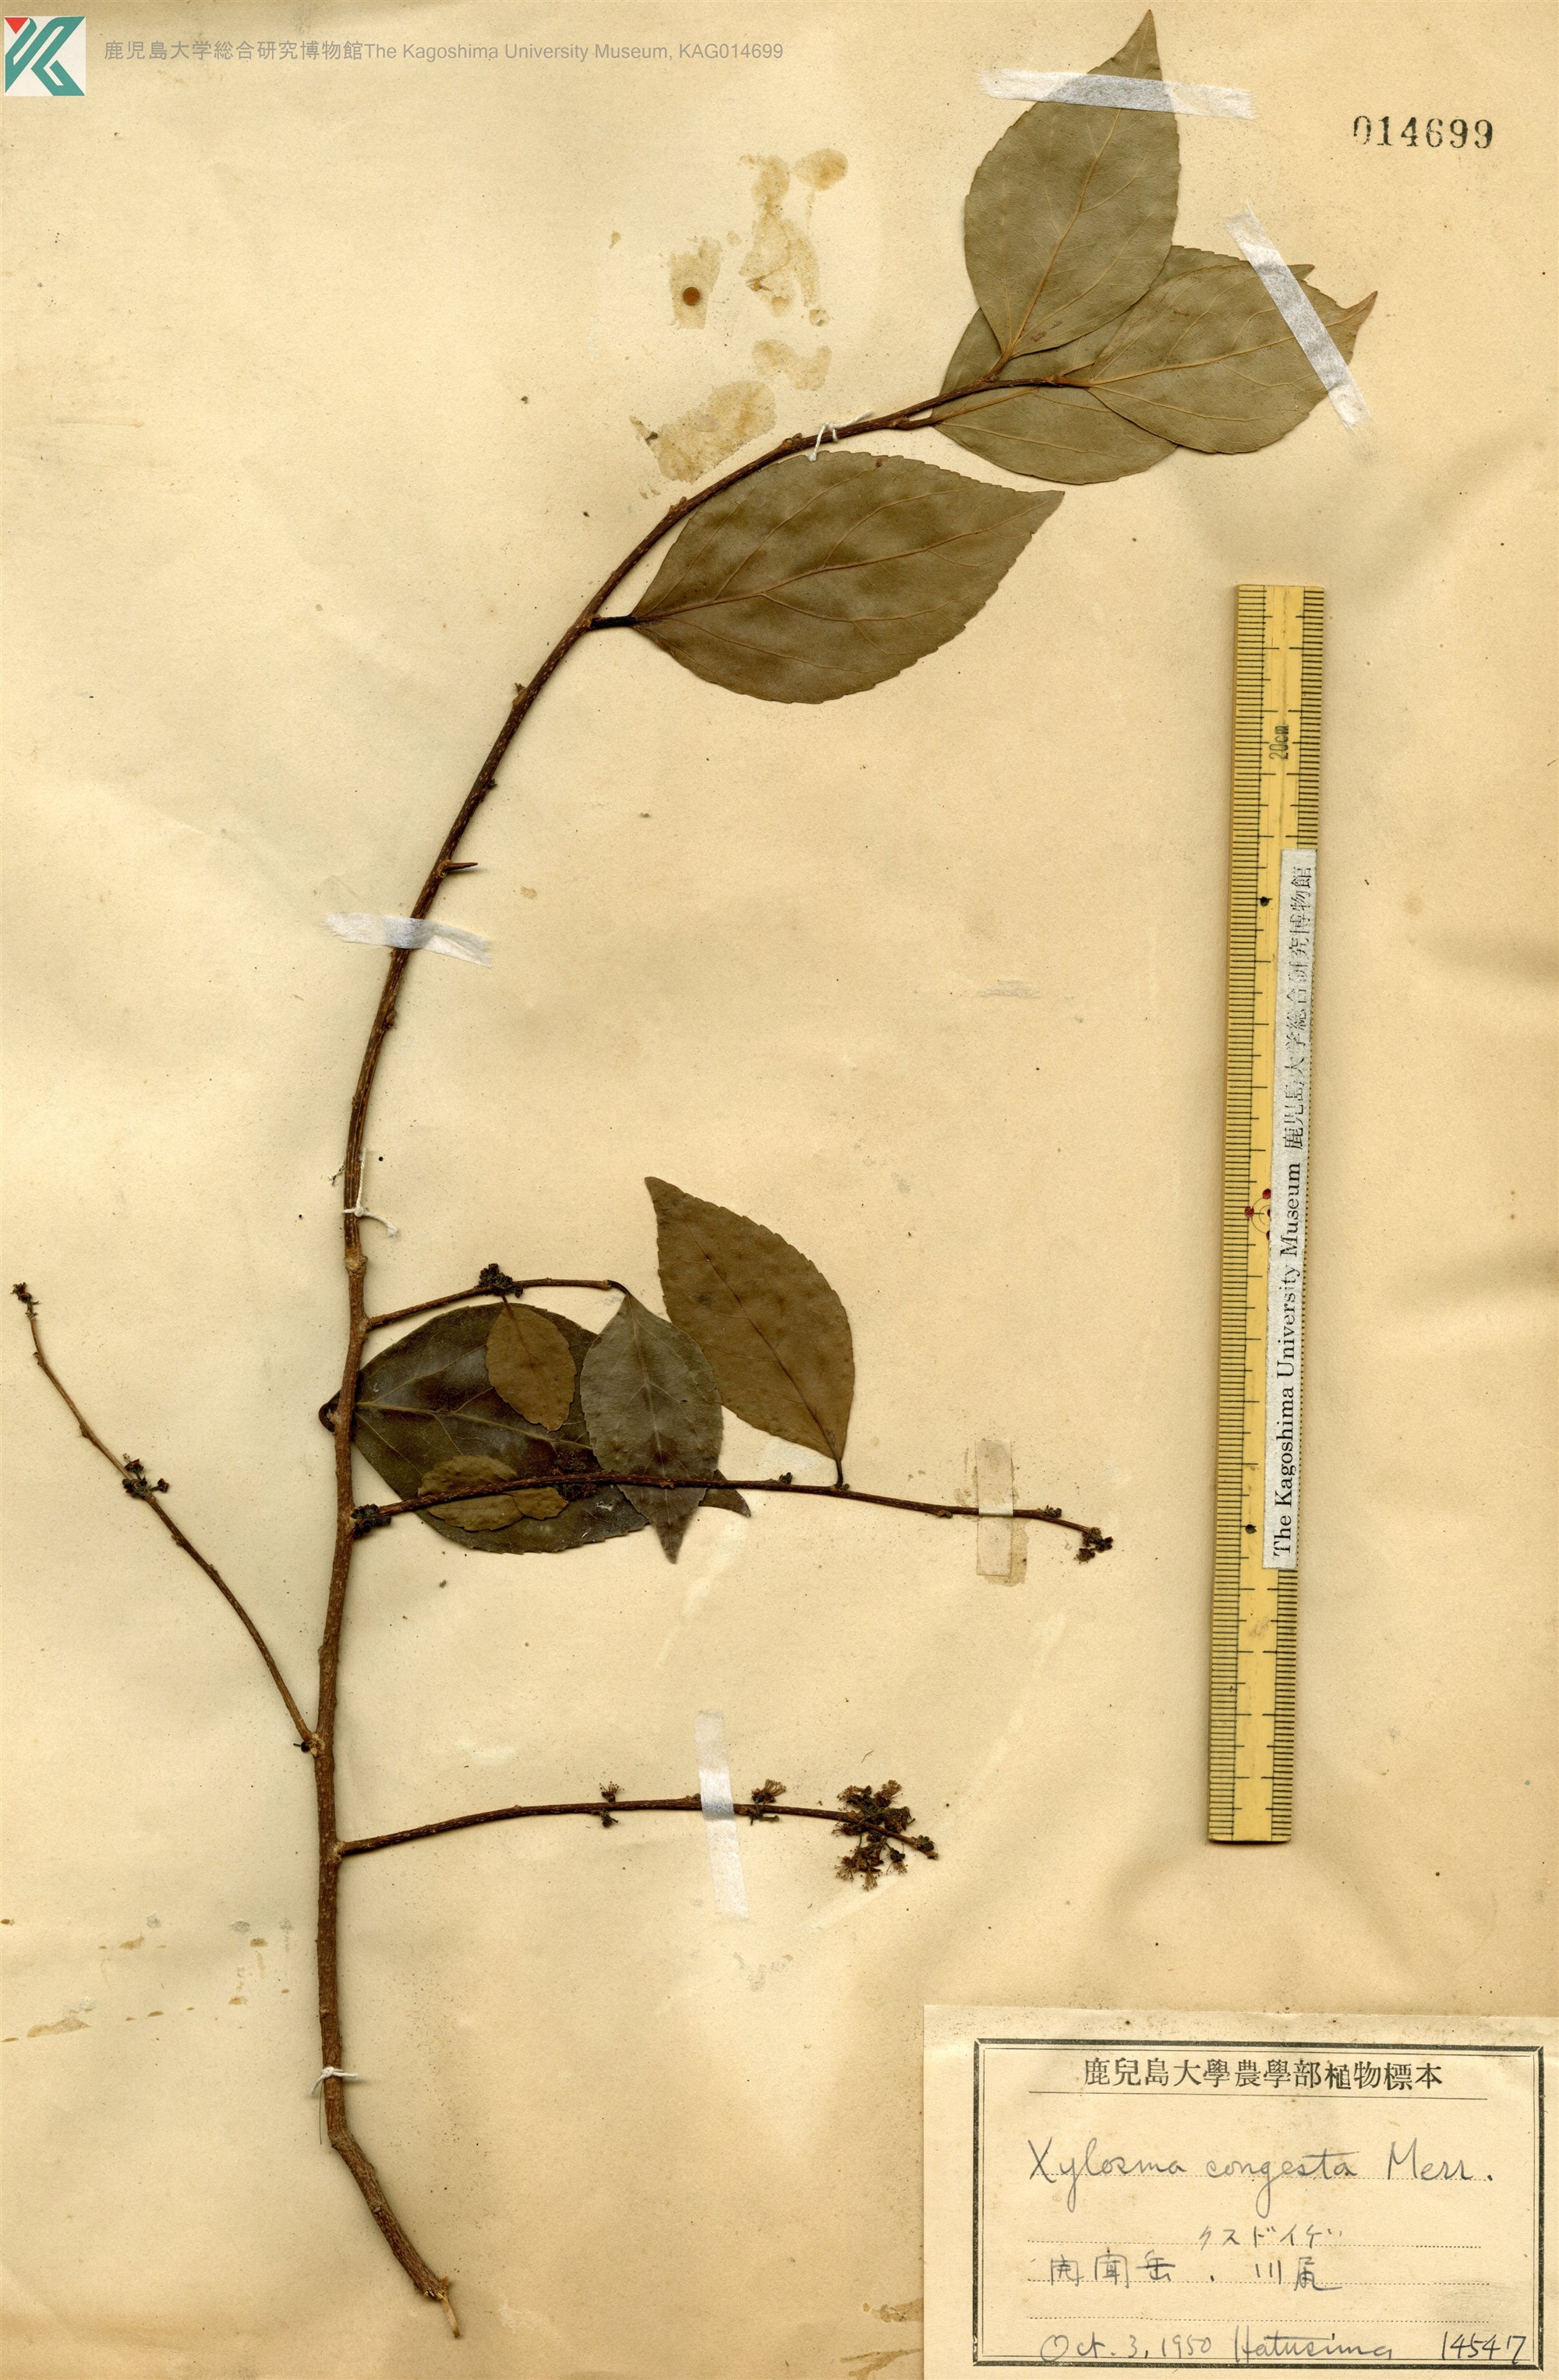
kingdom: Plantae
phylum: Tracheophyta
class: Magnoliopsida
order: Malpighiales
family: Salicaceae
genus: Xylosma
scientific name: Xylosma racemosum
